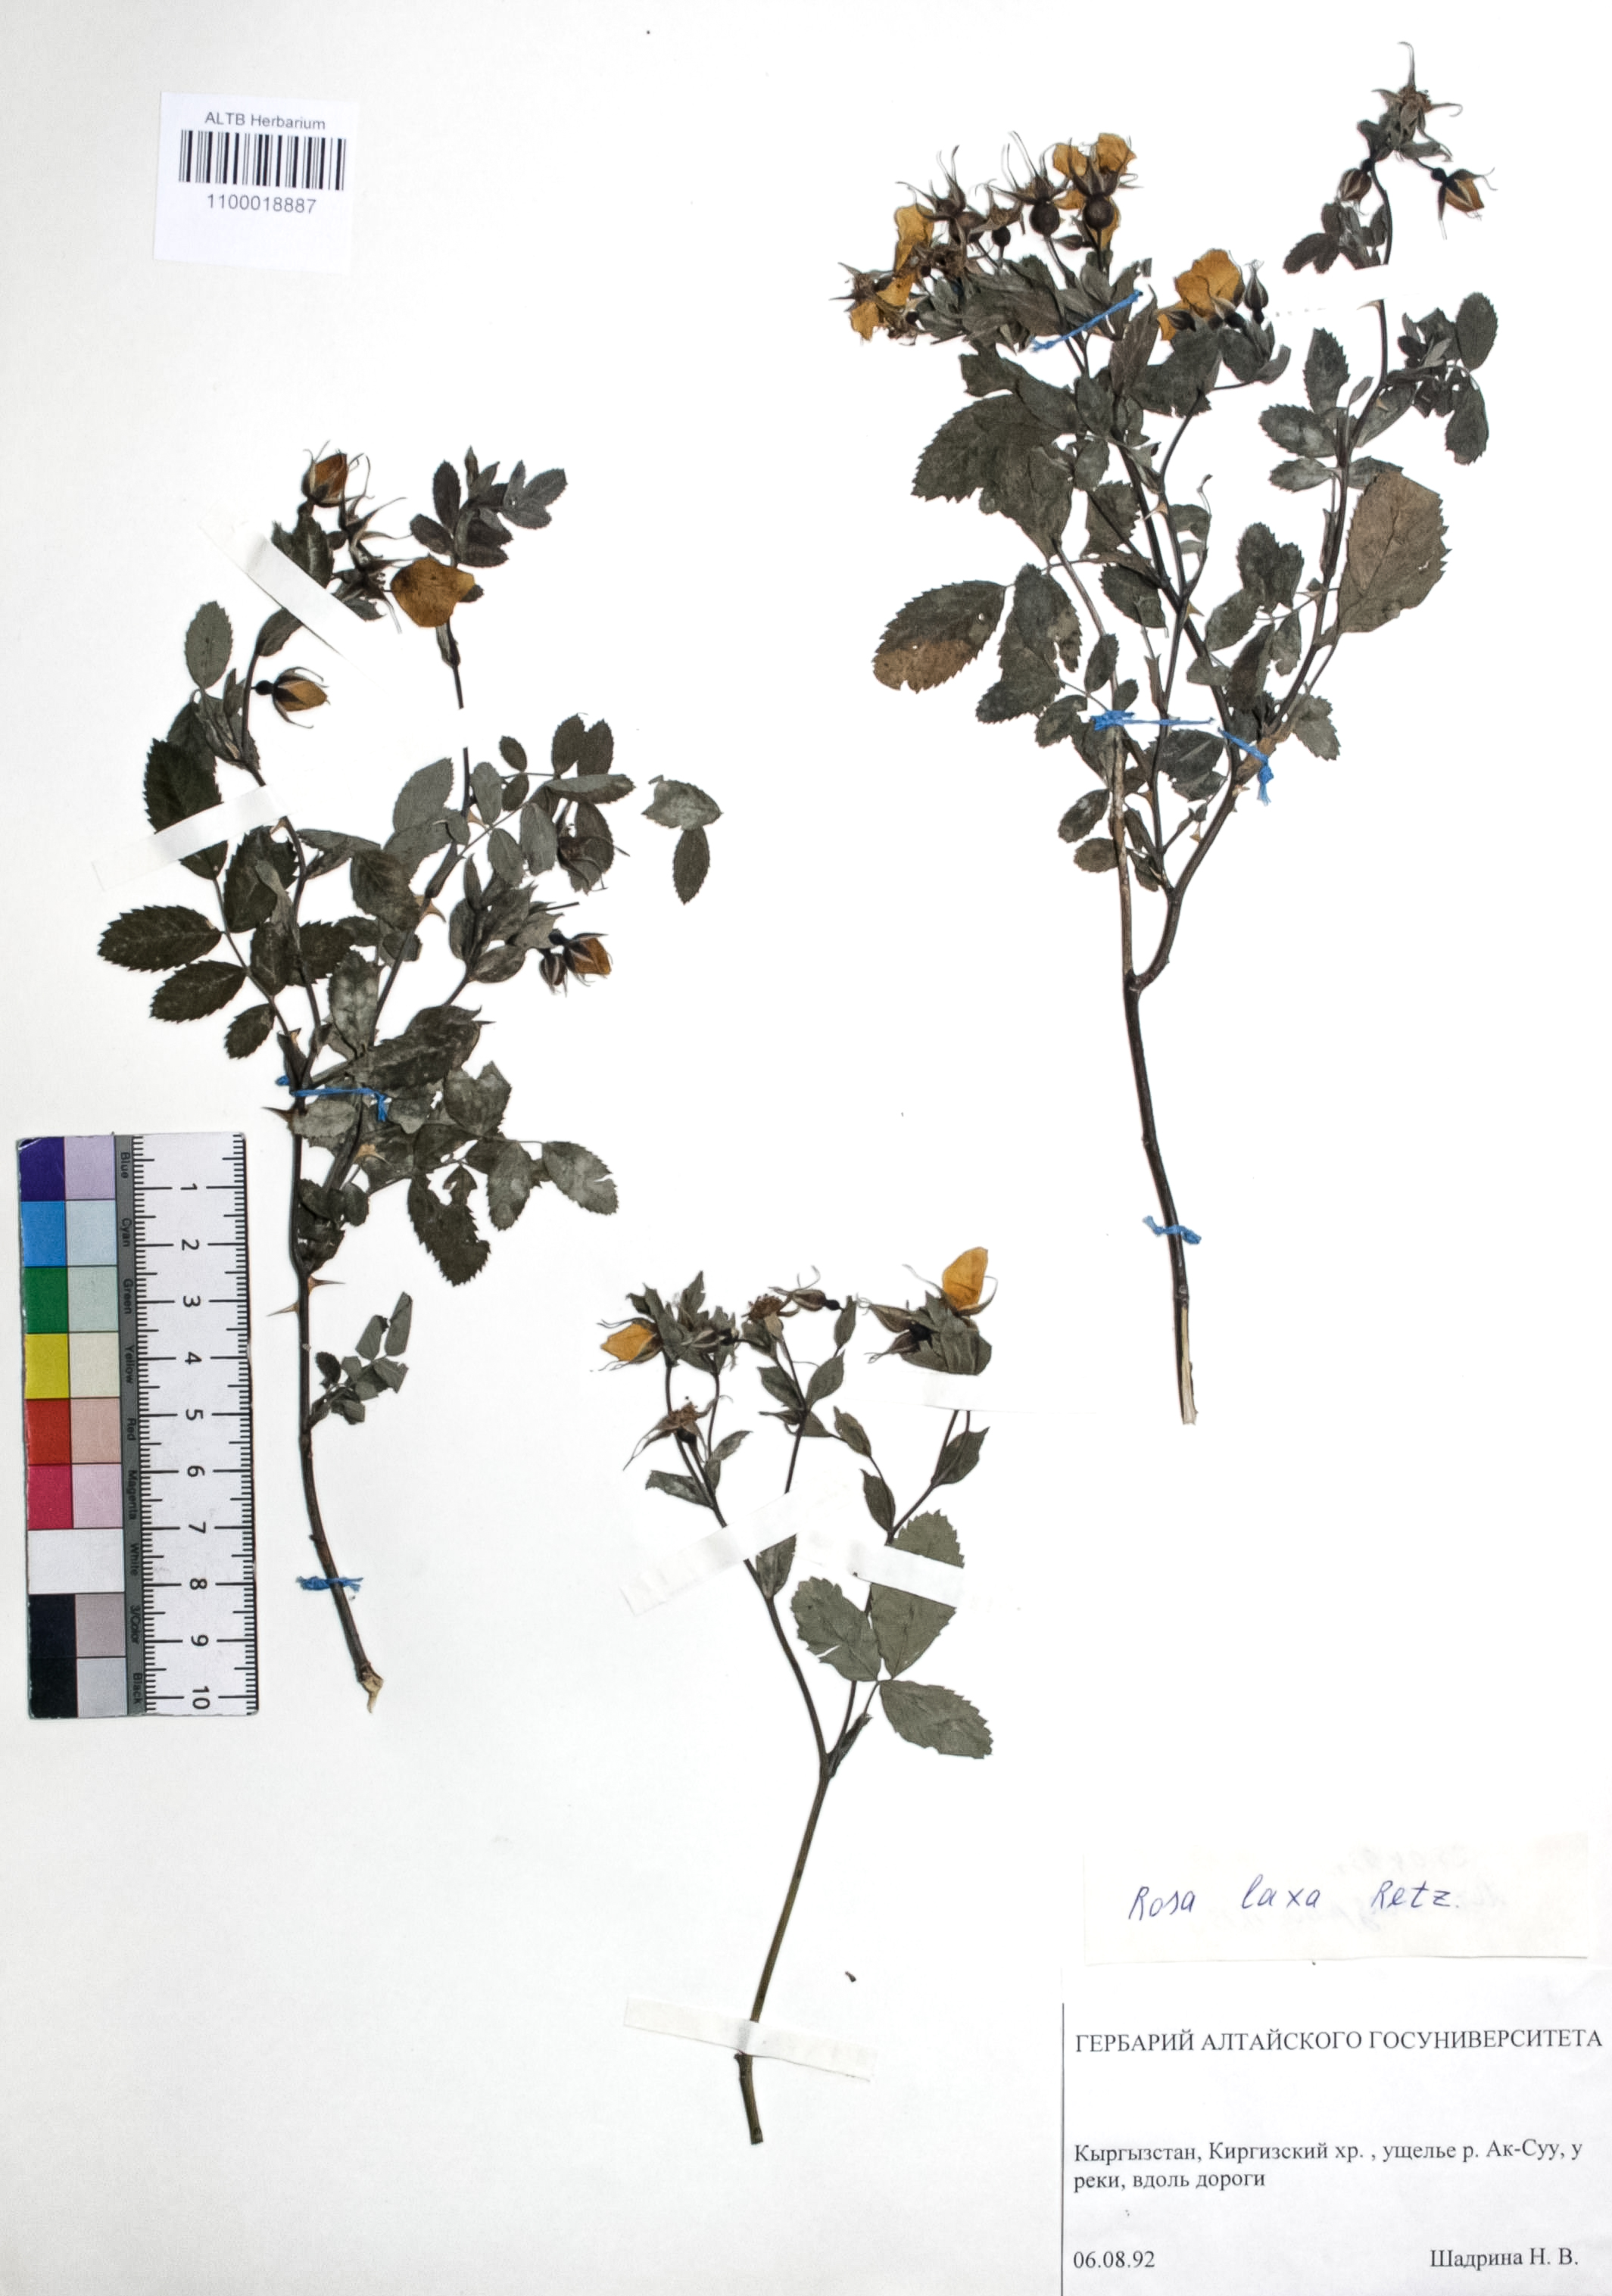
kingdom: Plantae
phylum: Tracheophyta
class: Magnoliopsida
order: Rosales
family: Rosaceae
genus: Rosa
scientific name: Rosa laxa
